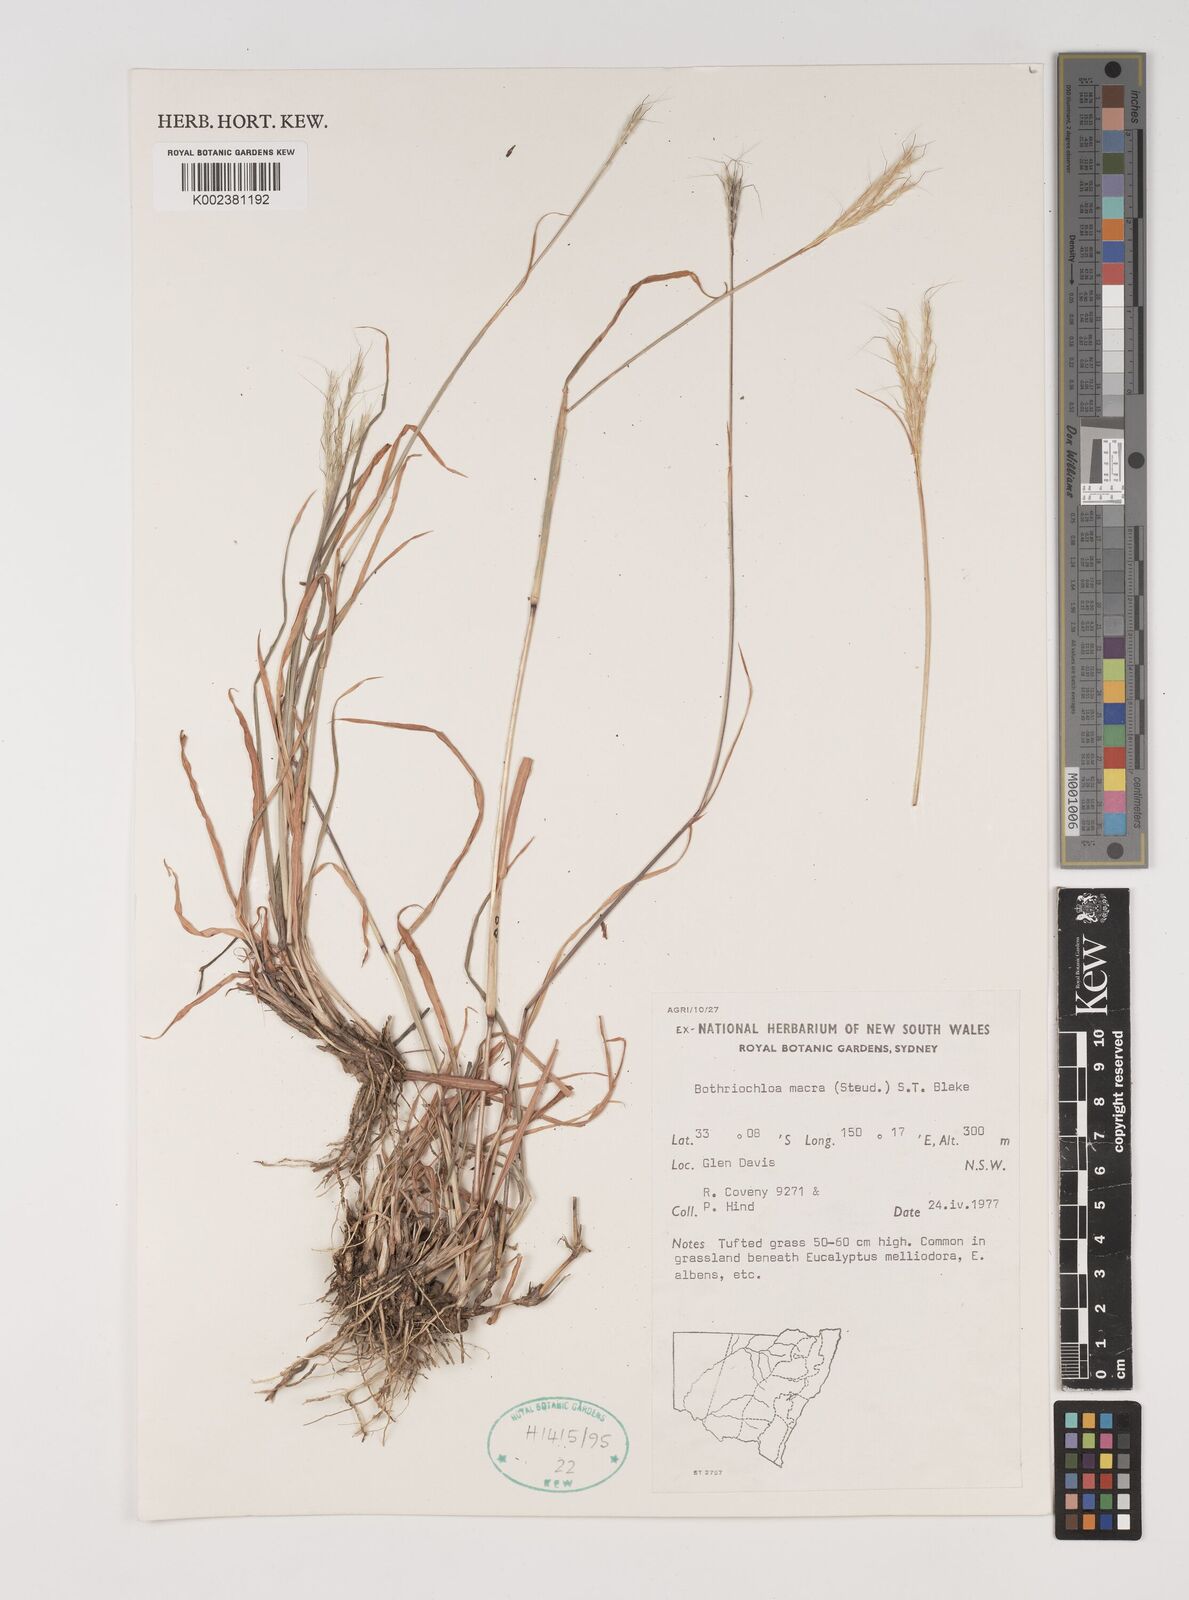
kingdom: Plantae
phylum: Tracheophyta
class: Liliopsida
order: Poales
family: Poaceae
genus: Bothriochloa
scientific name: Bothriochloa macra
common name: Pitted beard grass
